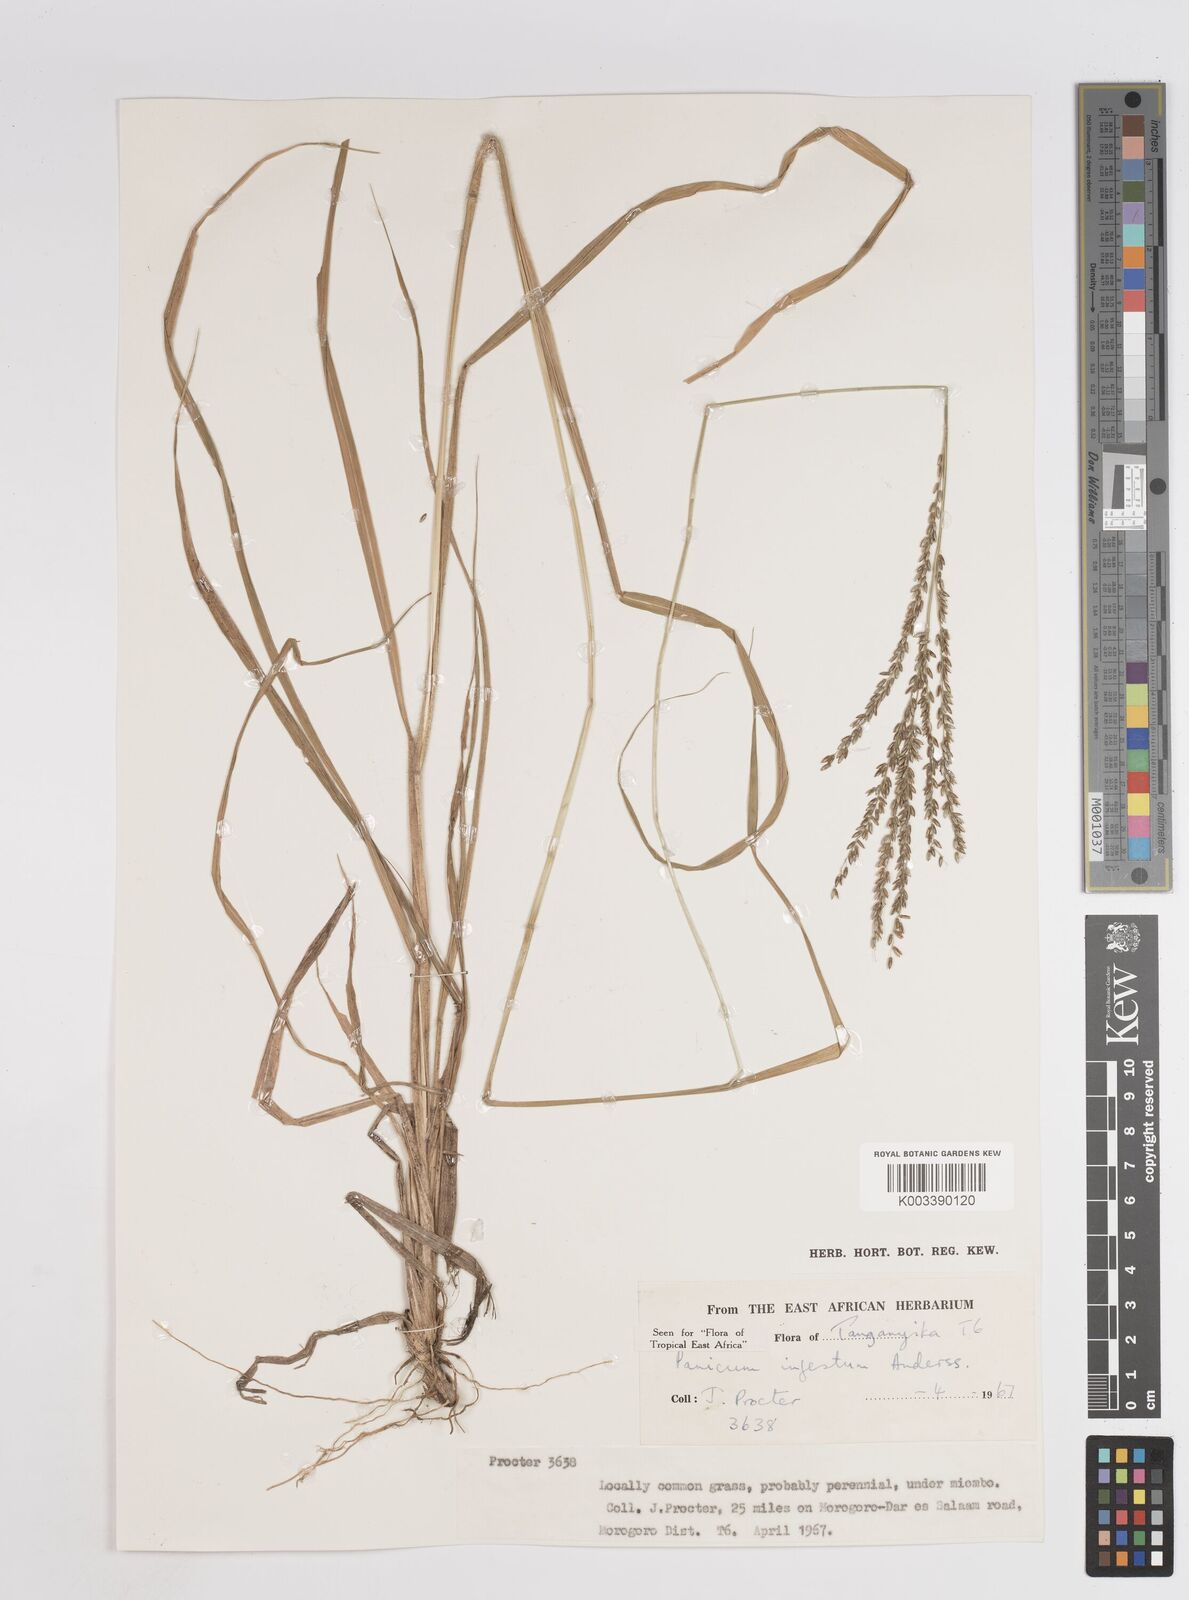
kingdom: Plantae
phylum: Tracheophyta
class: Liliopsida
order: Poales
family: Poaceae
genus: Megathyrsus
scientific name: Megathyrsus infestus
